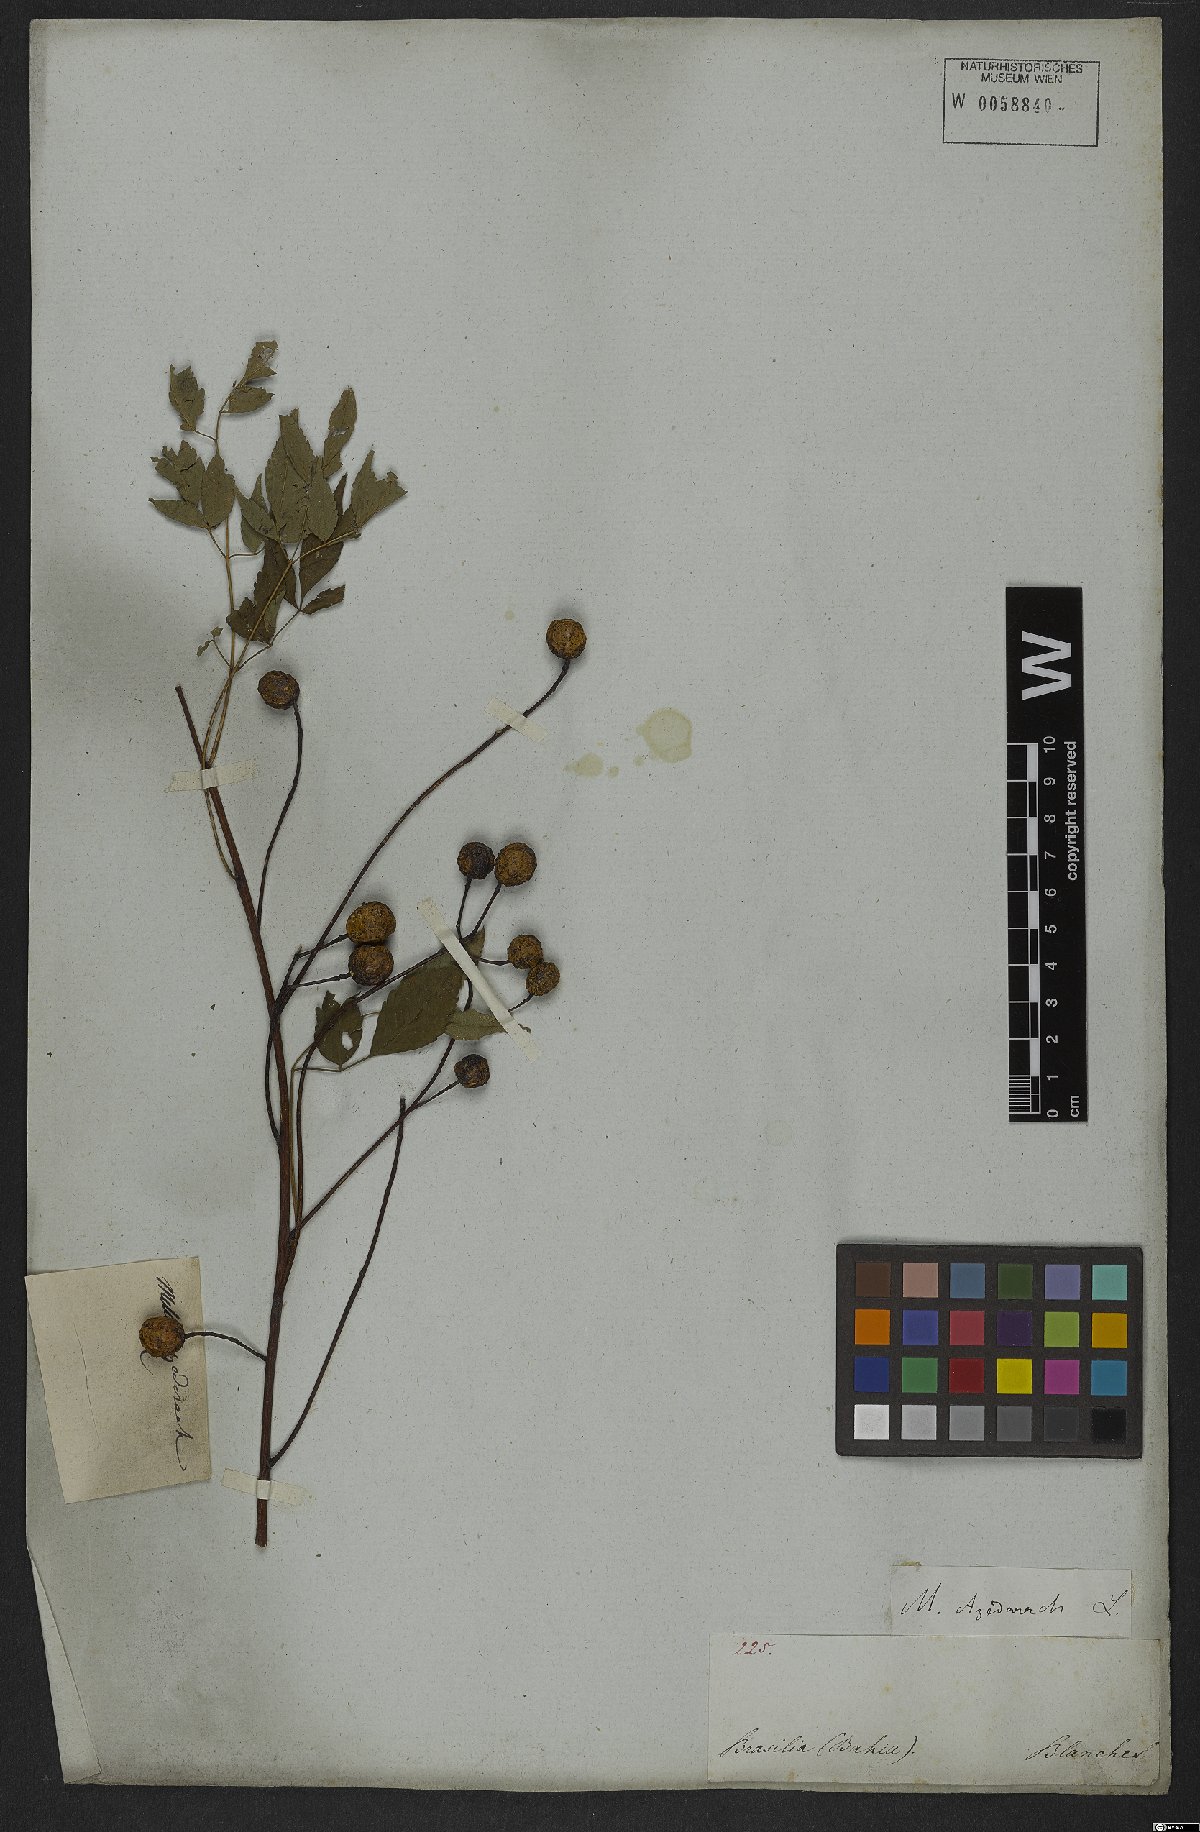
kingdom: Plantae
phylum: Tracheophyta
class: Magnoliopsida
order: Sapindales
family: Meliaceae
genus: Melia
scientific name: Melia azedarach
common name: Chinaberrytree
